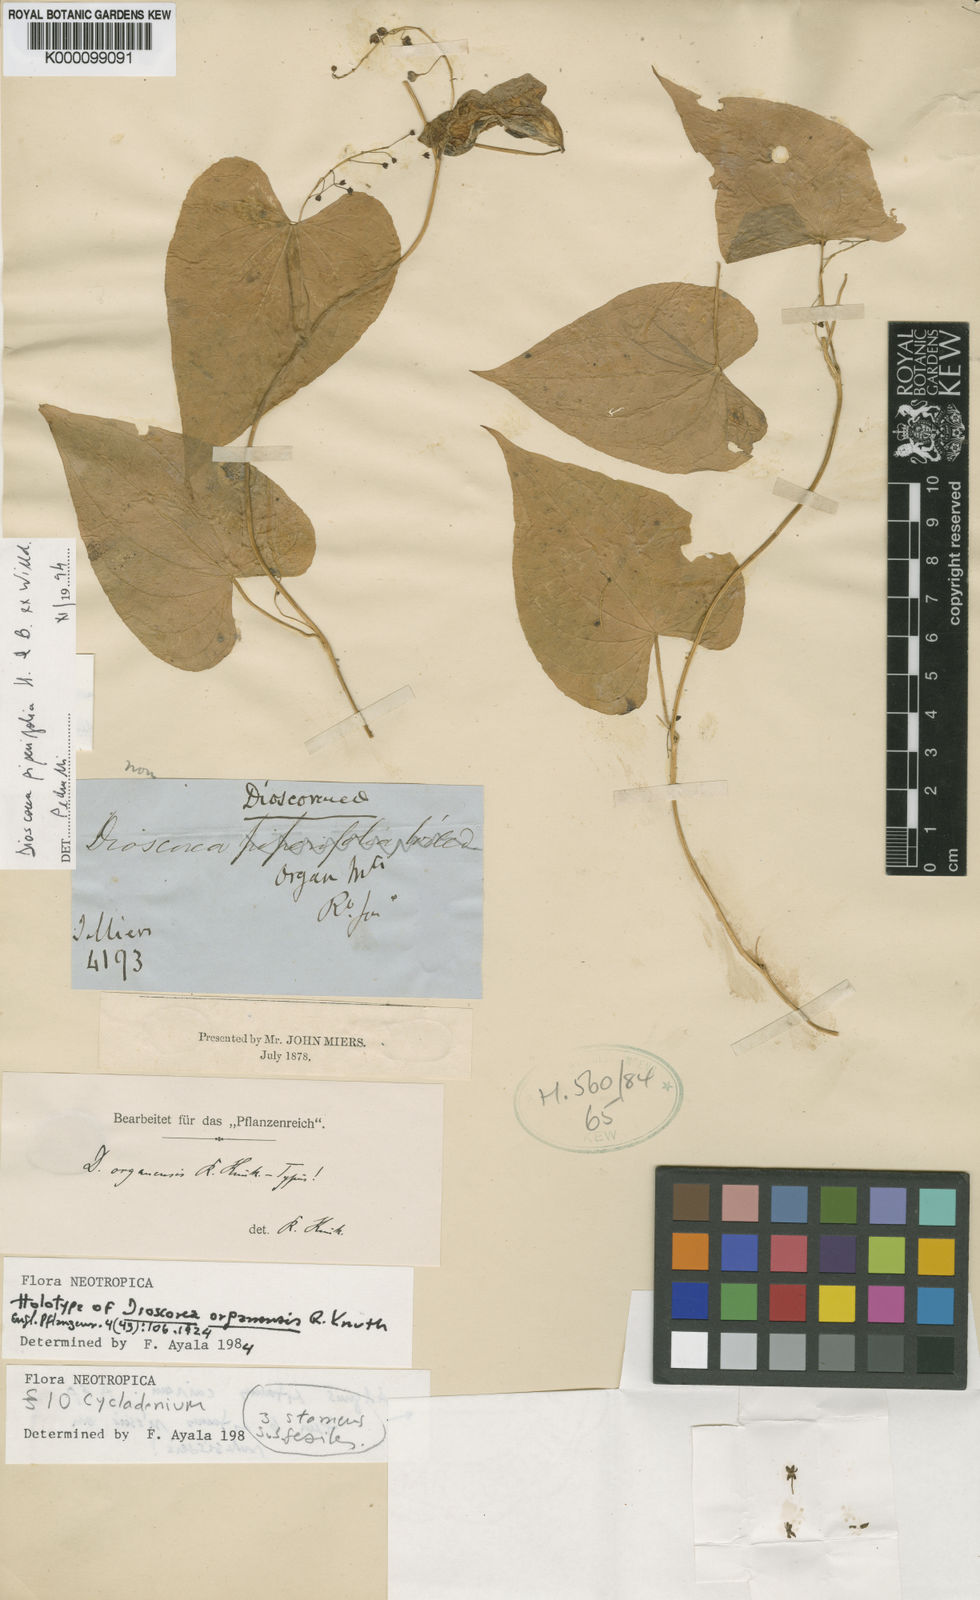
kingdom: Plantae
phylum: Tracheophyta
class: Liliopsida
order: Dioscoreales
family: Dioscoreaceae
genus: Dioscorea
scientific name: Dioscorea organensis
